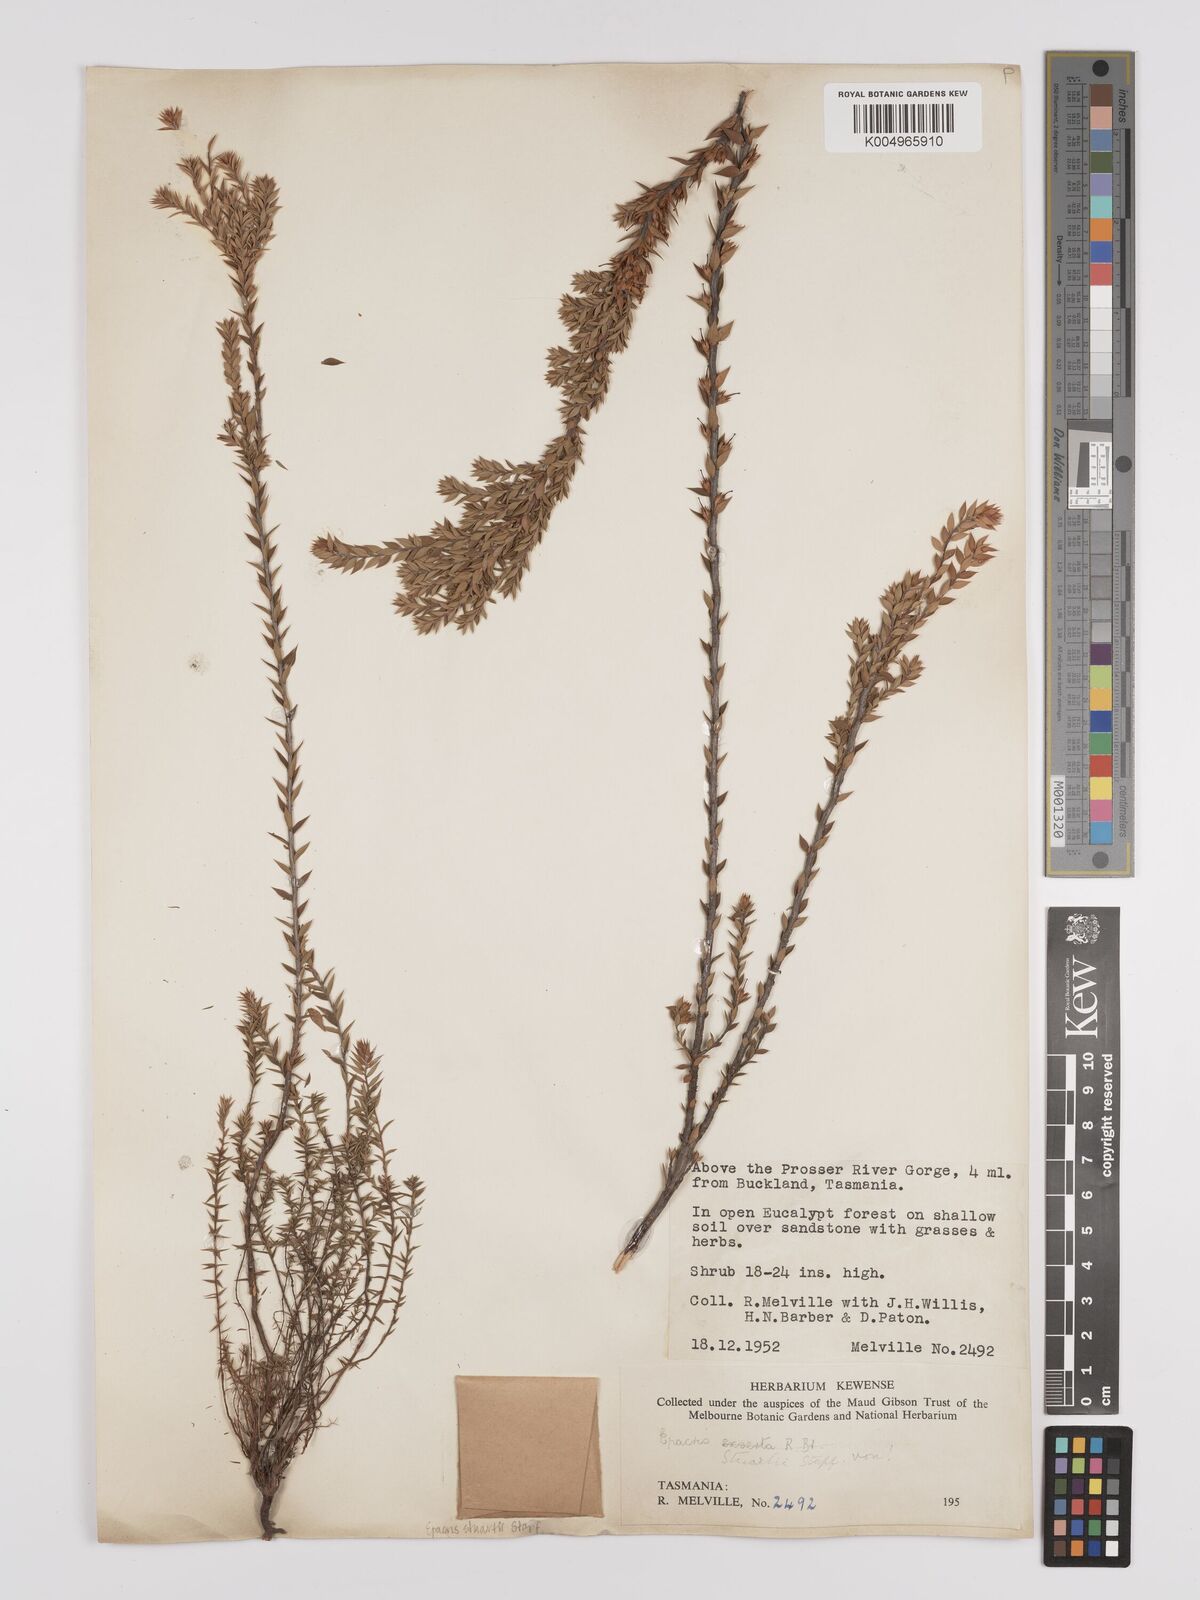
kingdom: Plantae
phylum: Tracheophyta
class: Magnoliopsida
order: Ericales
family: Ericaceae
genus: Epacris
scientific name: Epacris stuartii
